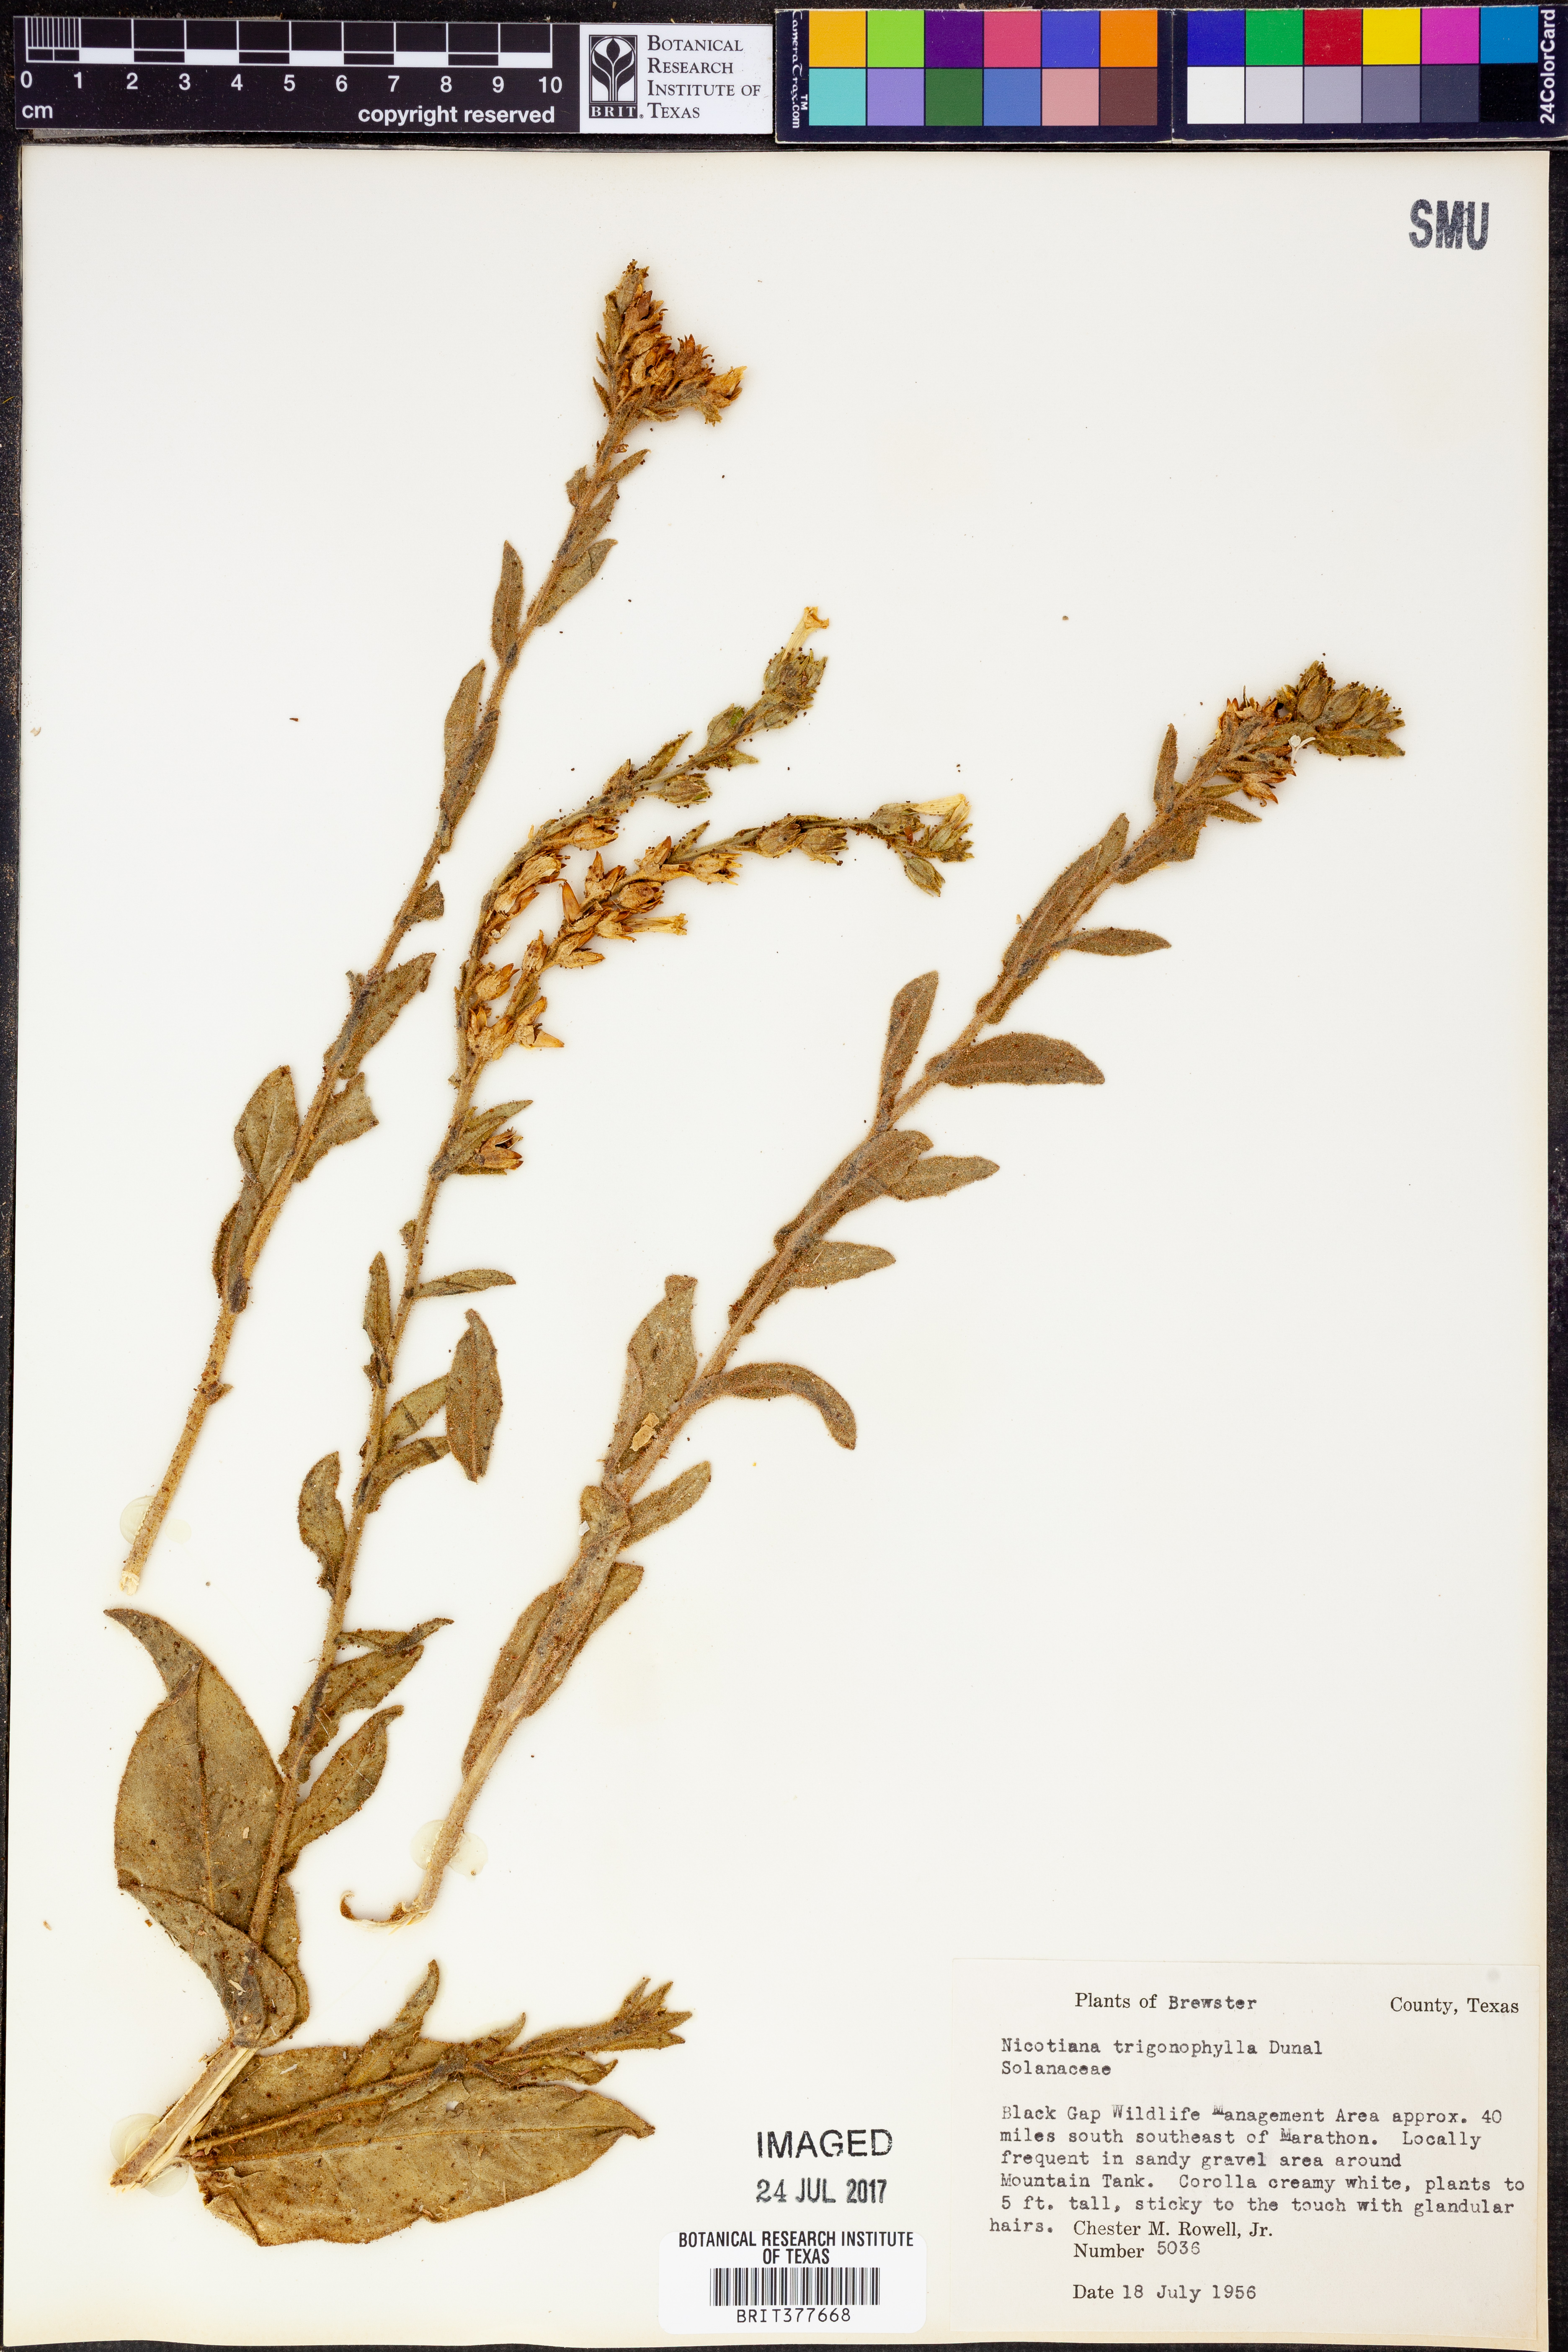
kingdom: Plantae
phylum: Tracheophyta
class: Magnoliopsida
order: Solanales
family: Solanaceae
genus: Nicotiana
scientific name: Nicotiana obtusifolia
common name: Desert tobacco
